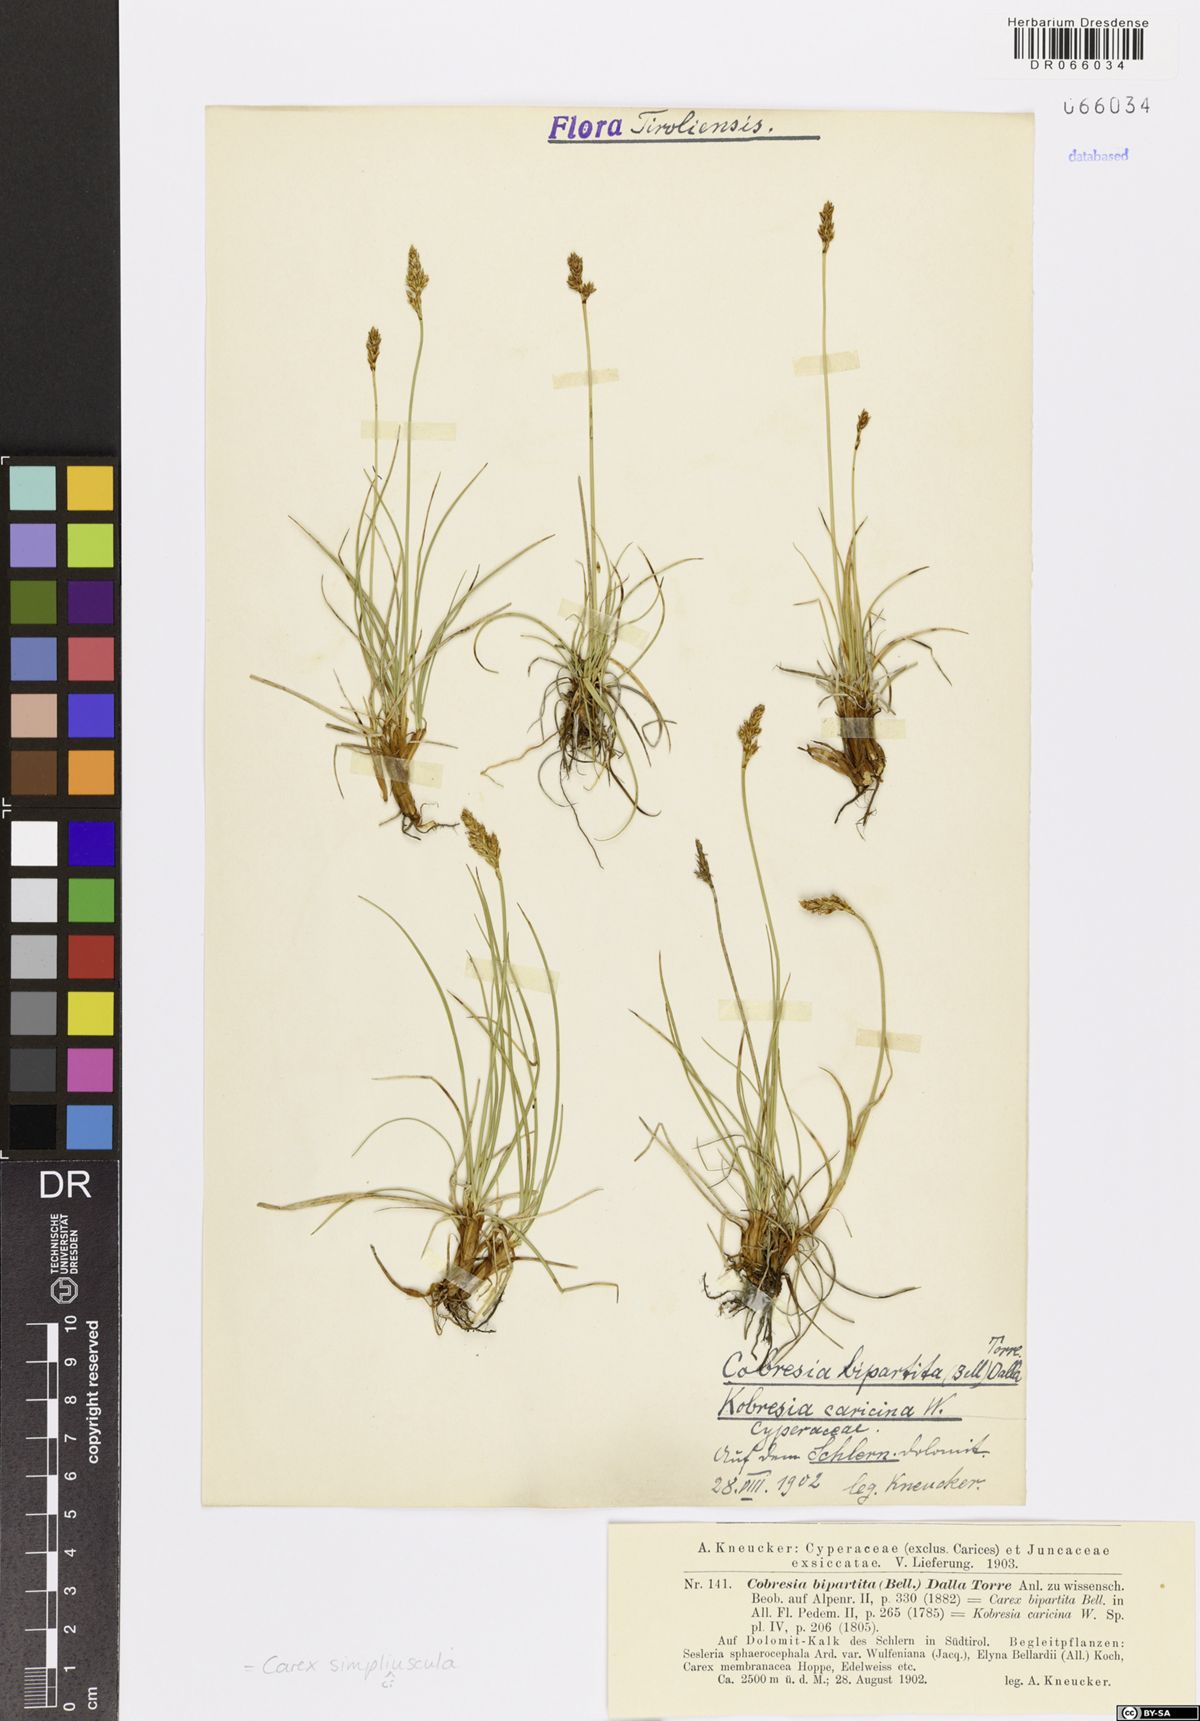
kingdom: Plantae
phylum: Tracheophyta
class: Liliopsida
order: Poales
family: Cyperaceae
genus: Carex
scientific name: Carex simpliciuscula
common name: Simple bog sedge
